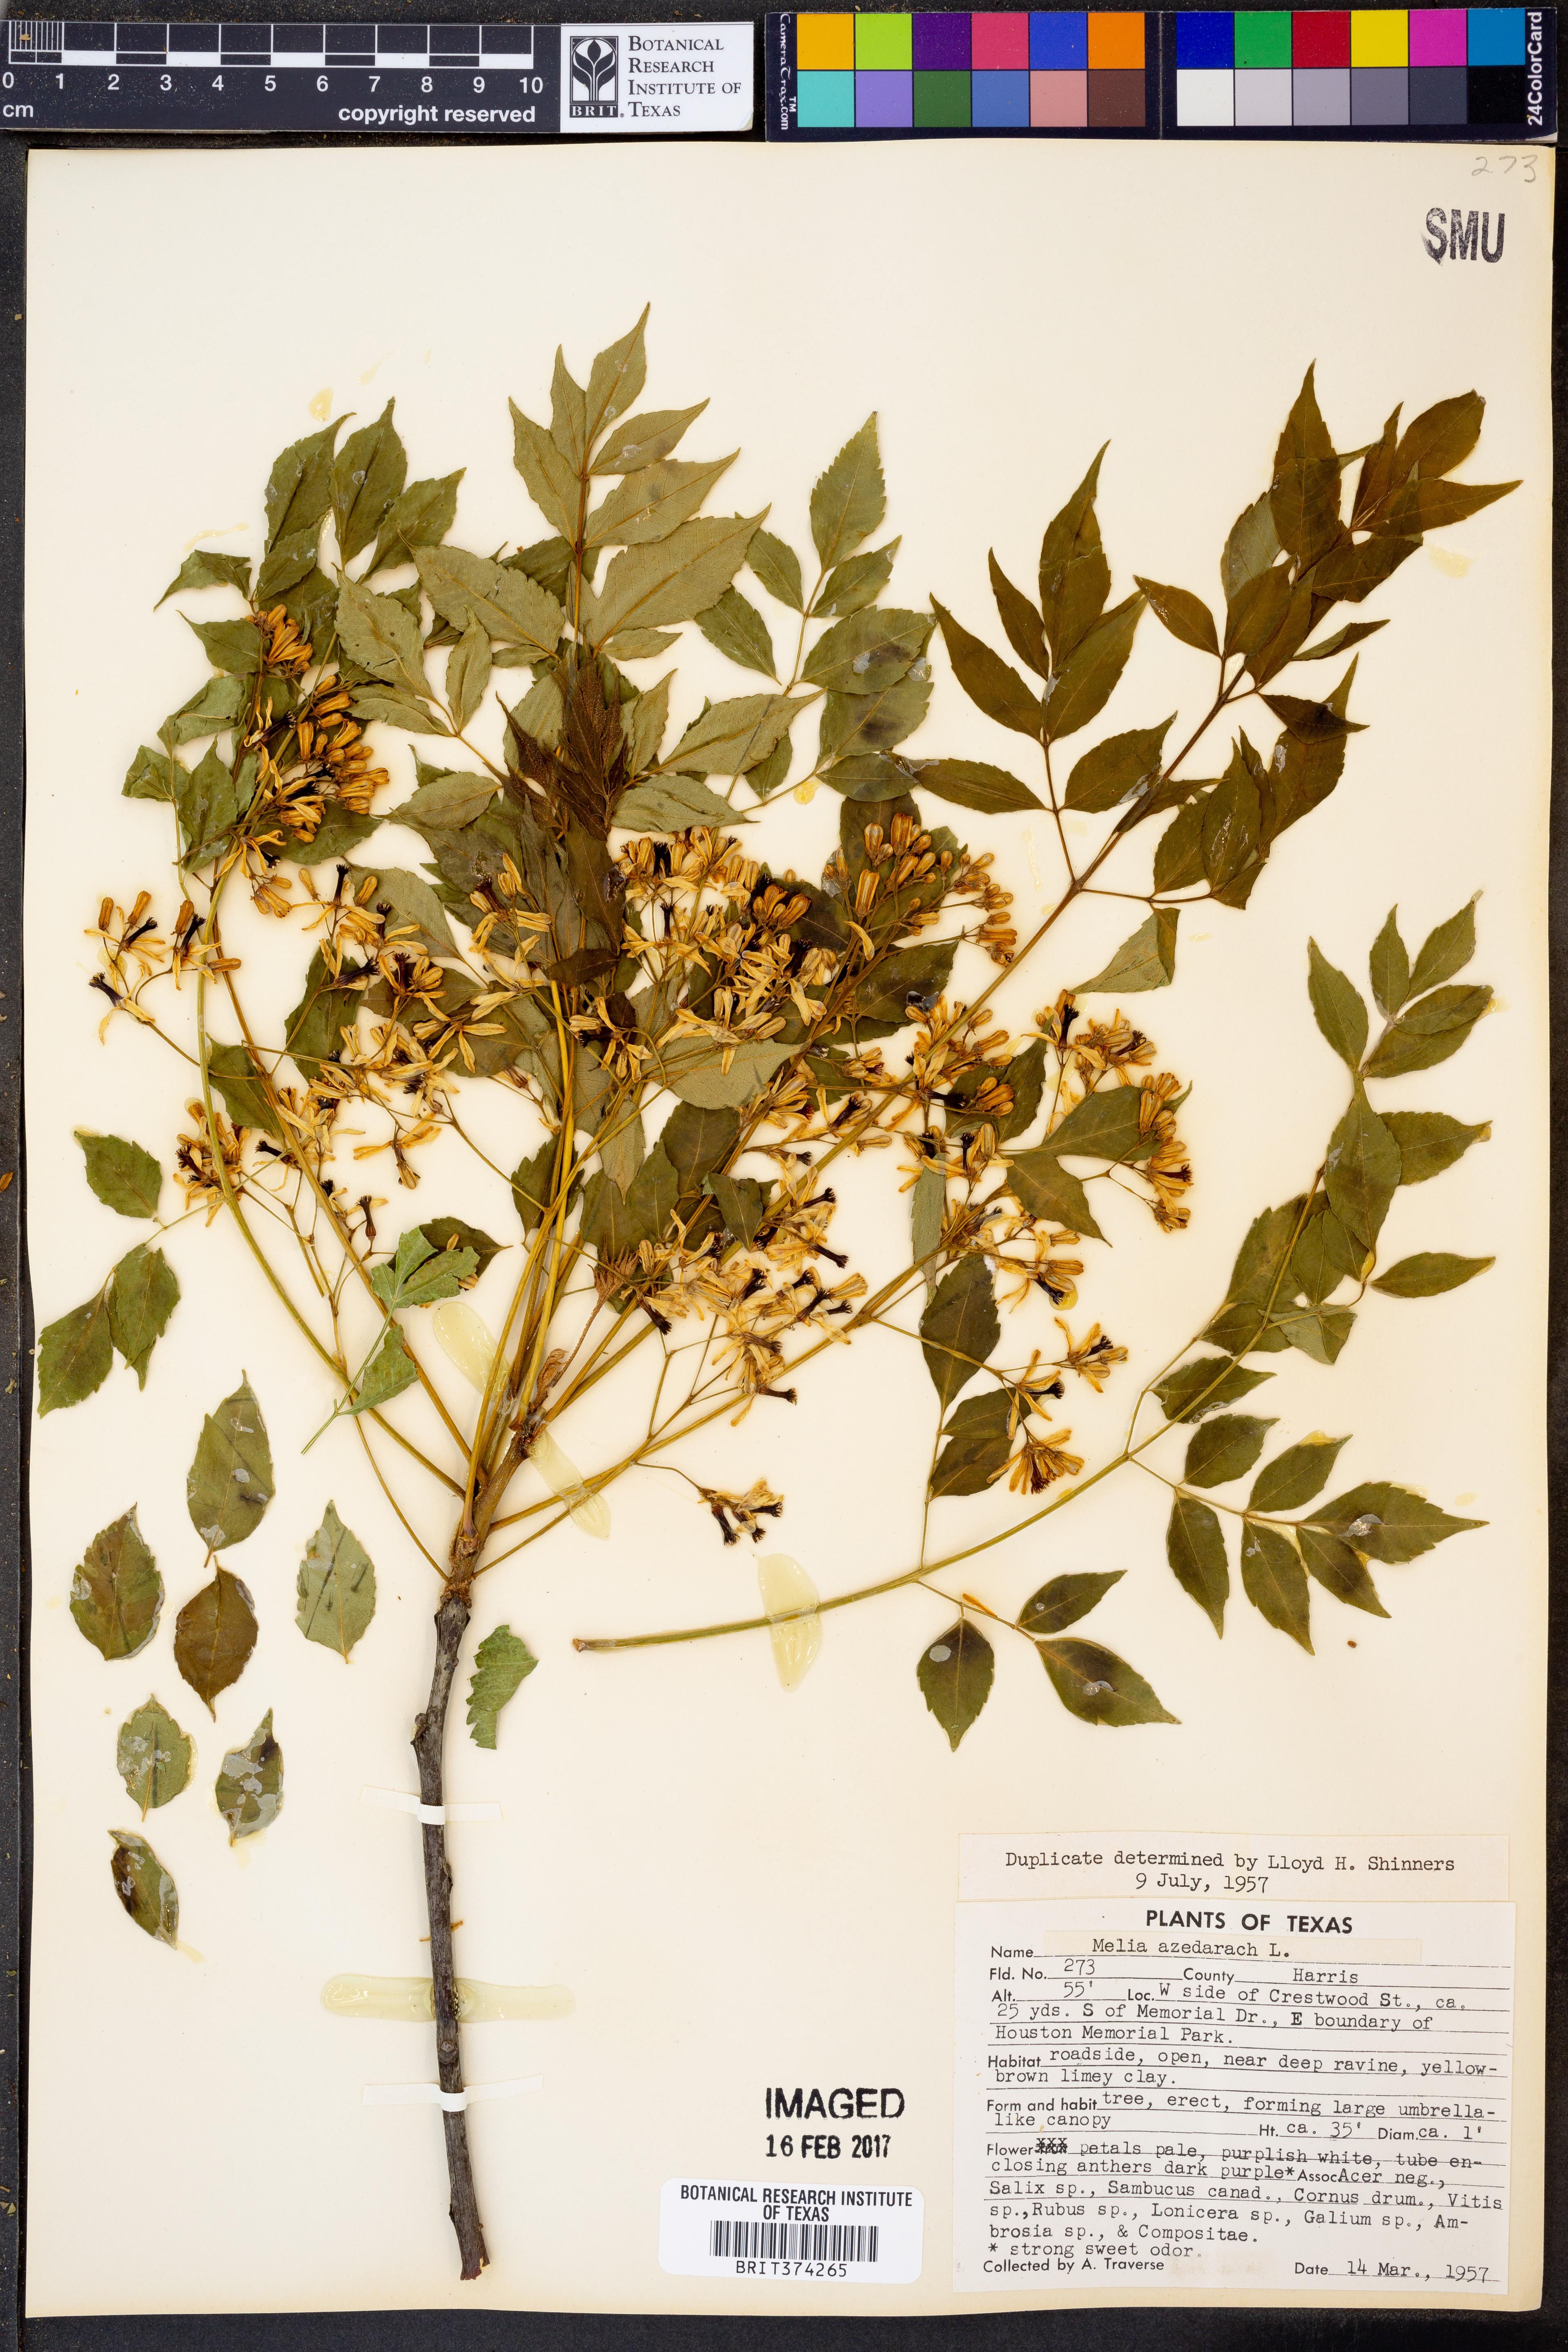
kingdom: Plantae
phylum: Tracheophyta
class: Magnoliopsida
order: Sapindales
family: Meliaceae
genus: Melia
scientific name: Melia azedarach
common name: Chinaberrytree
